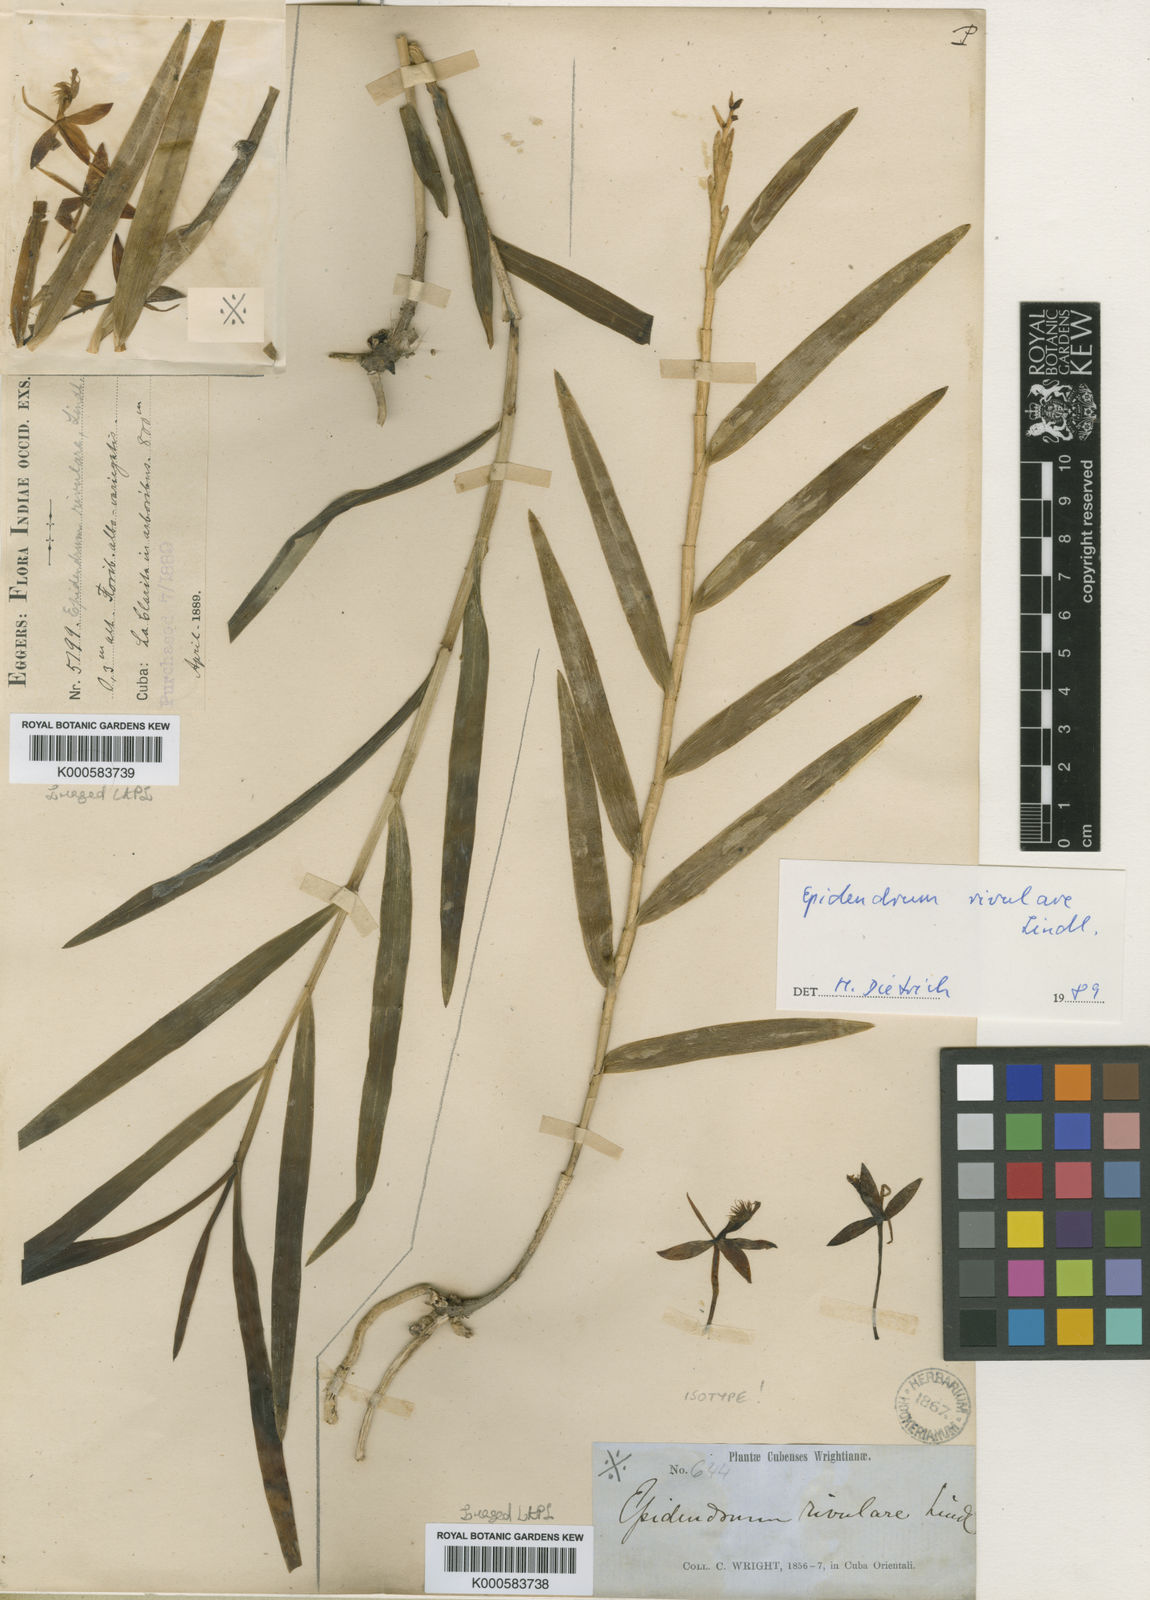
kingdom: Plantae
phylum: Tracheophyta
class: Liliopsida
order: Asparagales
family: Orchidaceae
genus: Epidendrum
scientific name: Epidendrum rivulare
